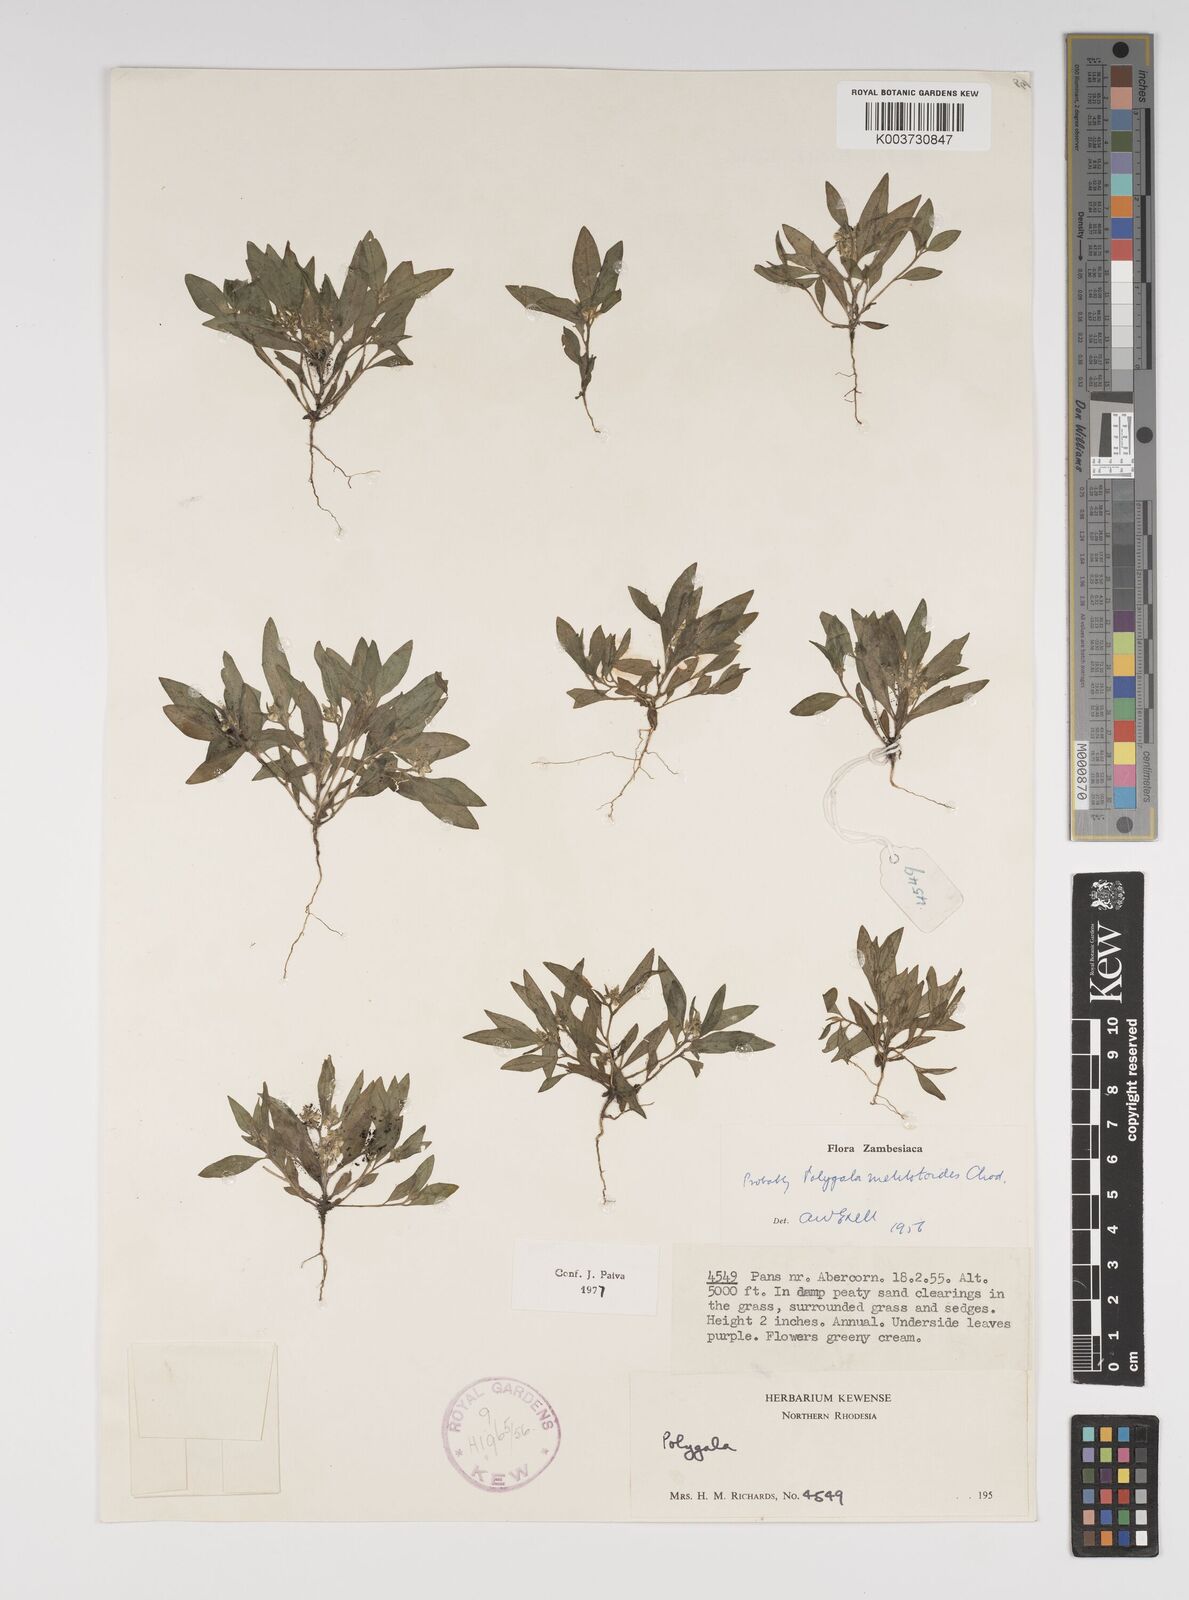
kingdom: Plantae
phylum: Tracheophyta
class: Magnoliopsida
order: Fabales
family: Polygalaceae
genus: Polygala
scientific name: Polygala melilotoides
